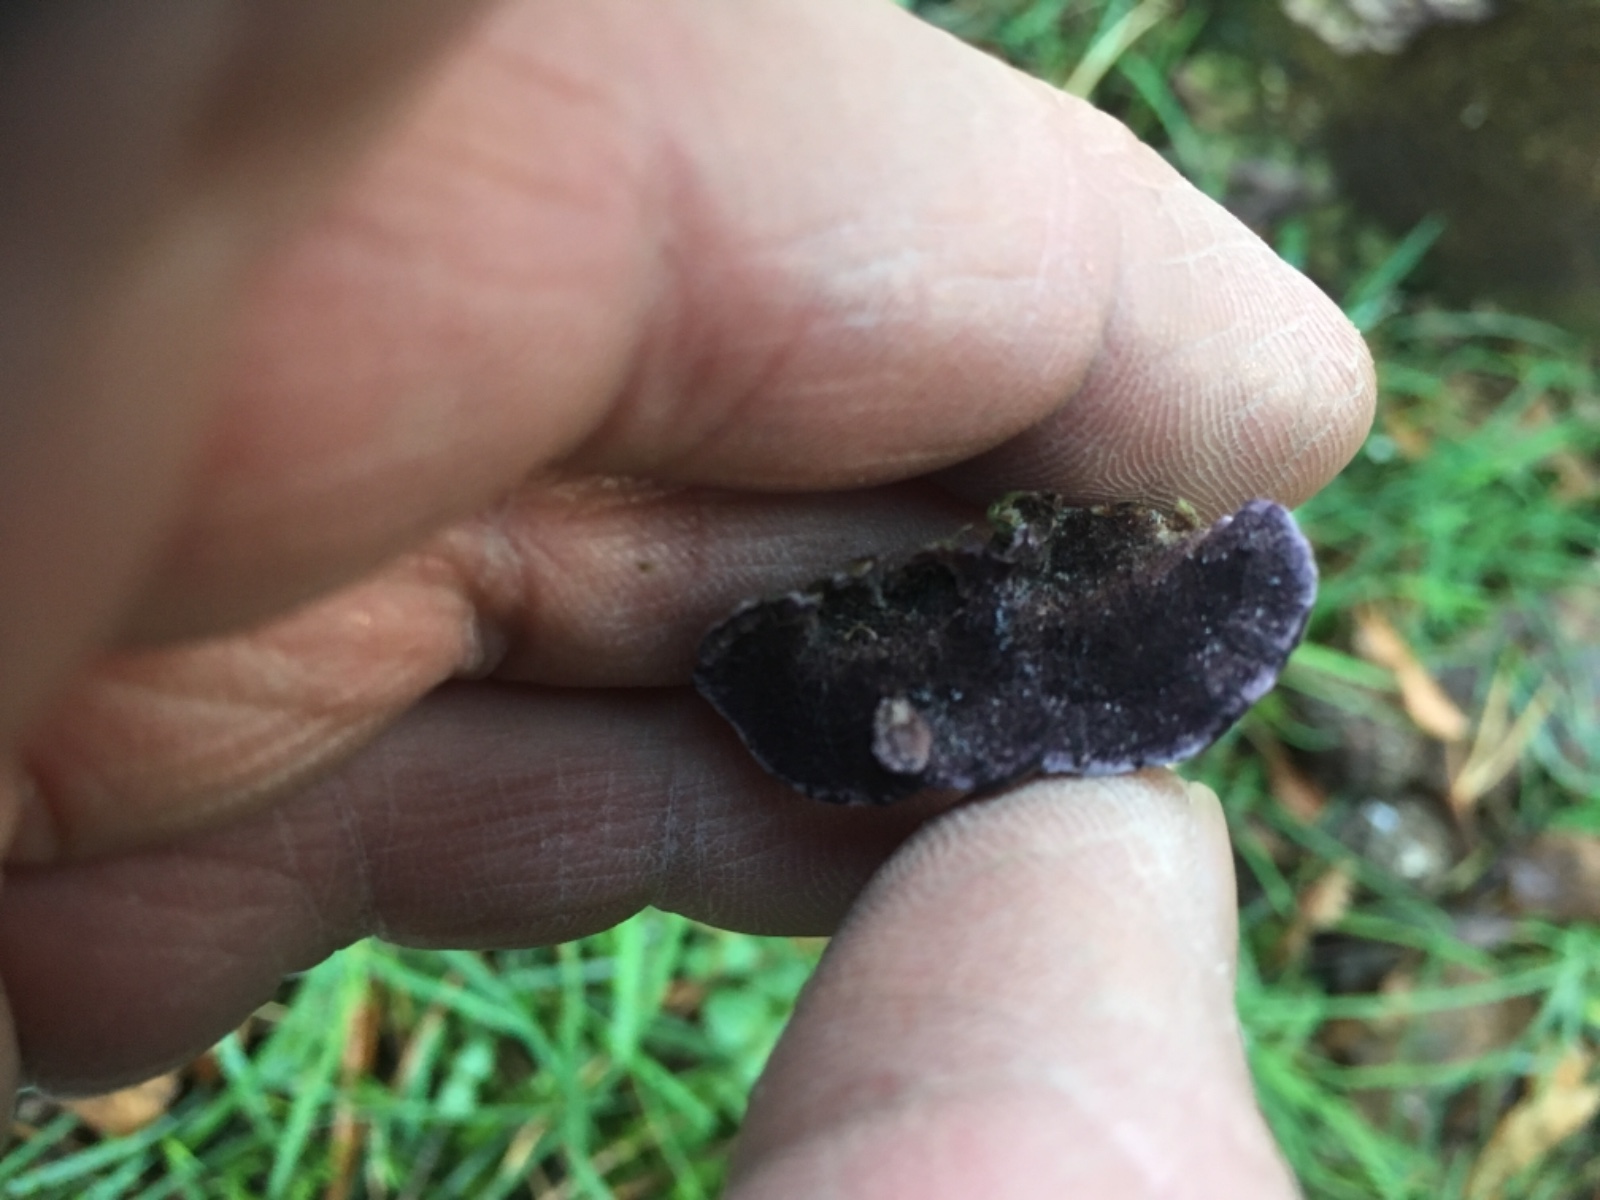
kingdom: Fungi
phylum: Basidiomycota
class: Agaricomycetes
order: Hymenochaetales
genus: Trichaptum
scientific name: Trichaptum fuscoviolaceum
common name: tandet violporesvamp
